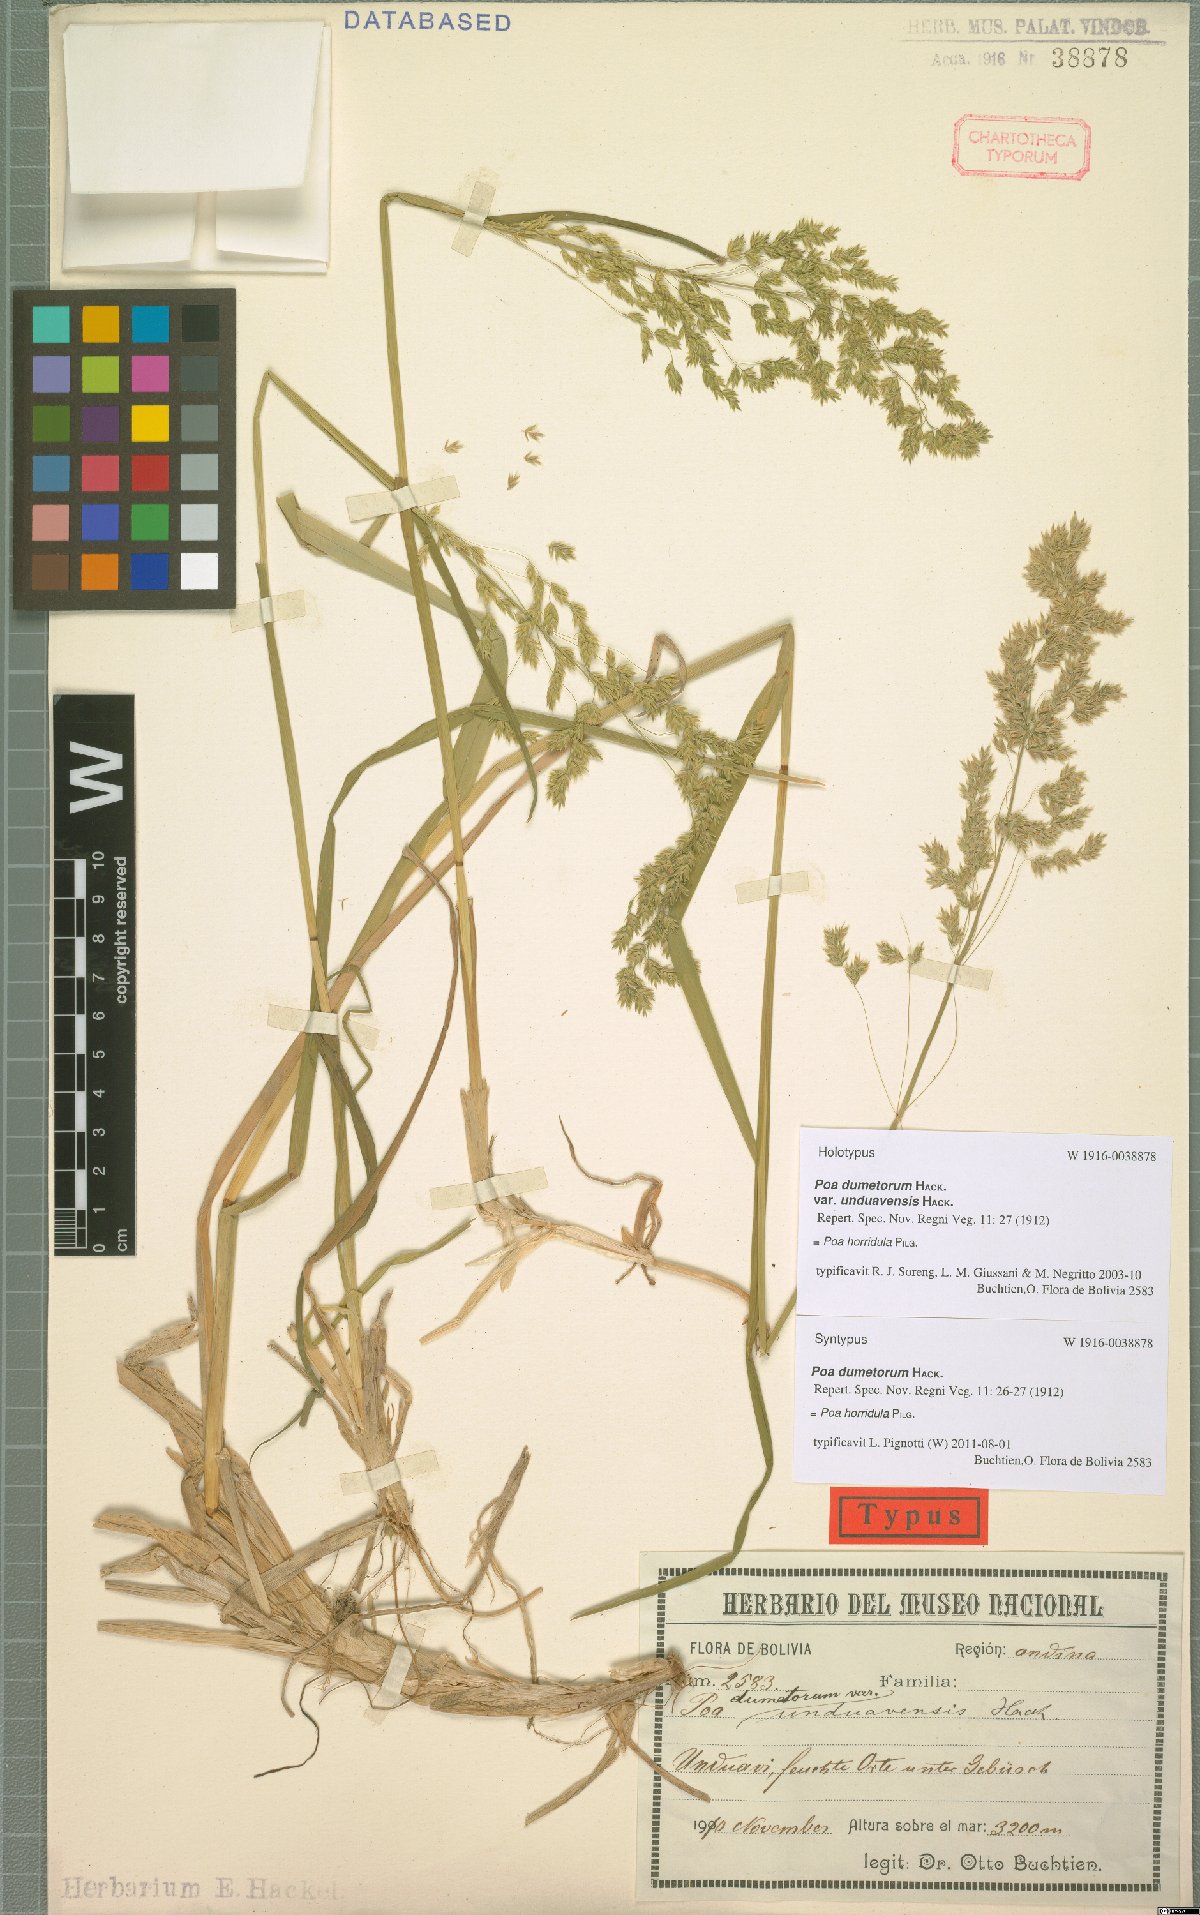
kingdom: Plantae
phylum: Tracheophyta
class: Liliopsida
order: Poales
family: Poaceae
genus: Poa
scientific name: Poa horridula
